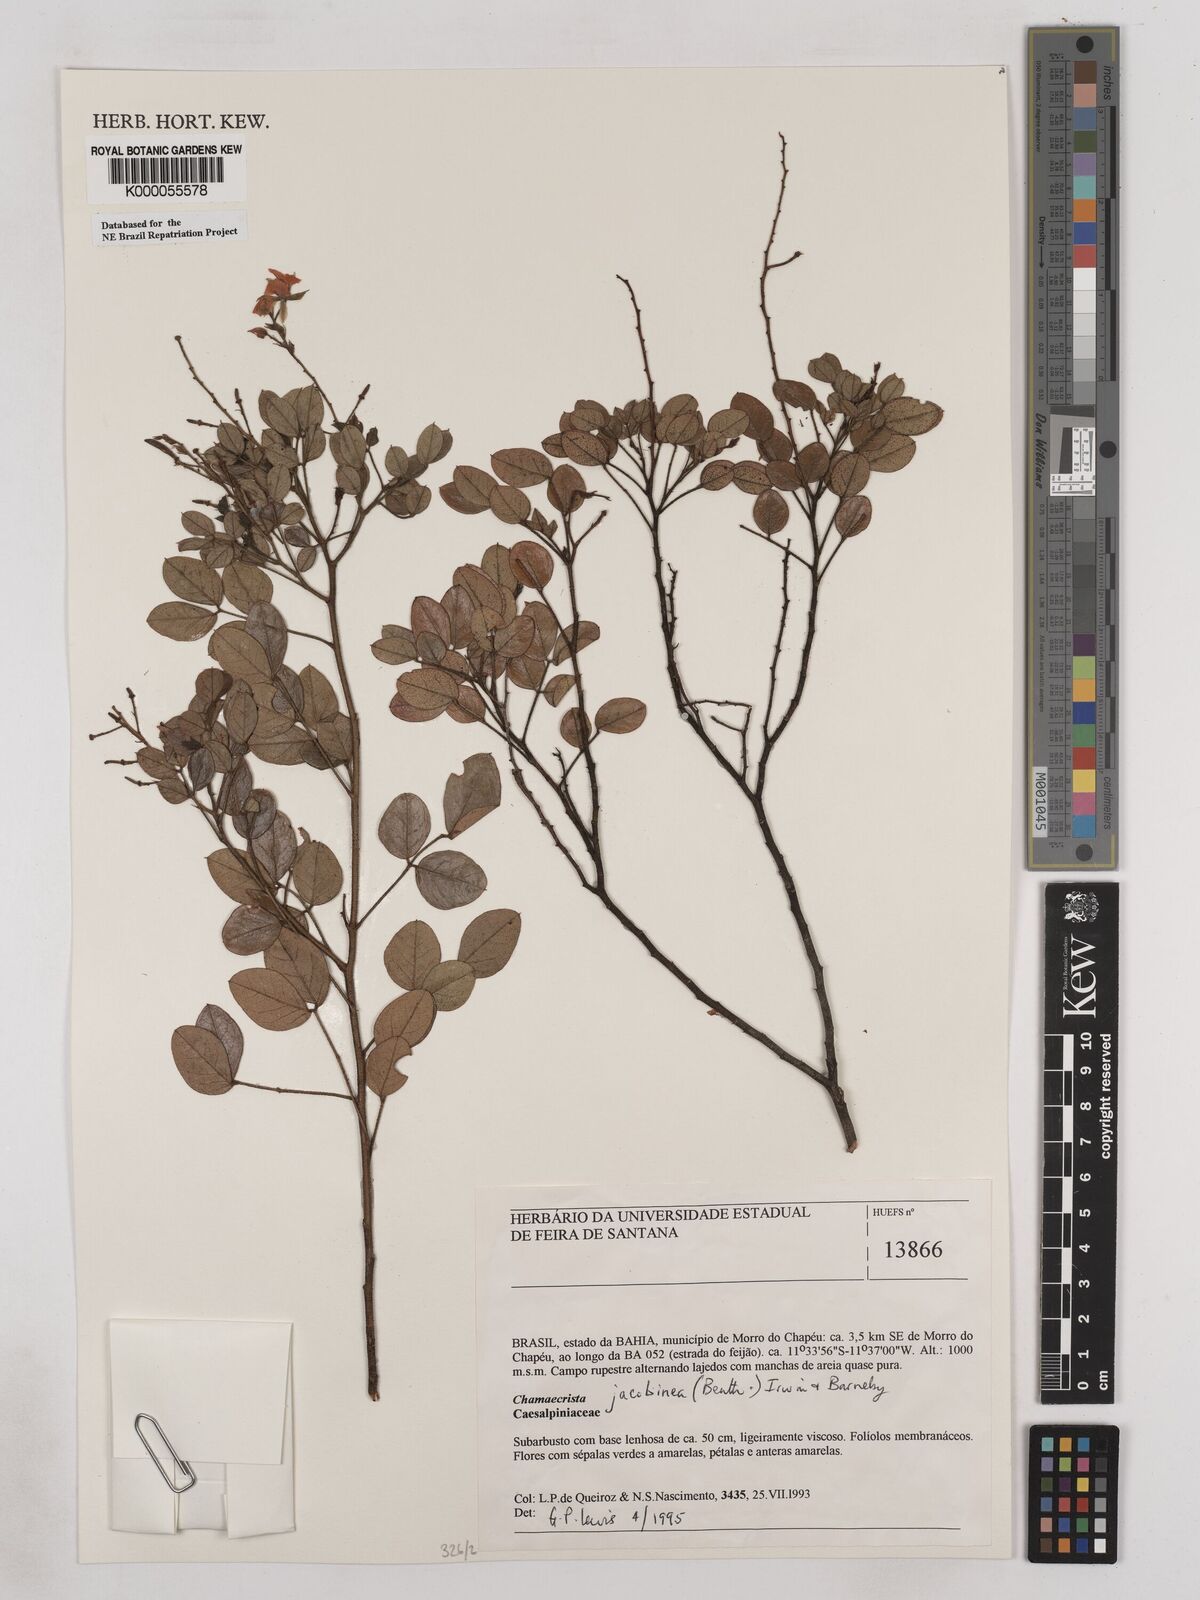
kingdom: Plantae
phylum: Tracheophyta
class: Magnoliopsida
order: Fabales
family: Fabaceae
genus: Chamaecrista
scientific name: Chamaecrista jacobinea
